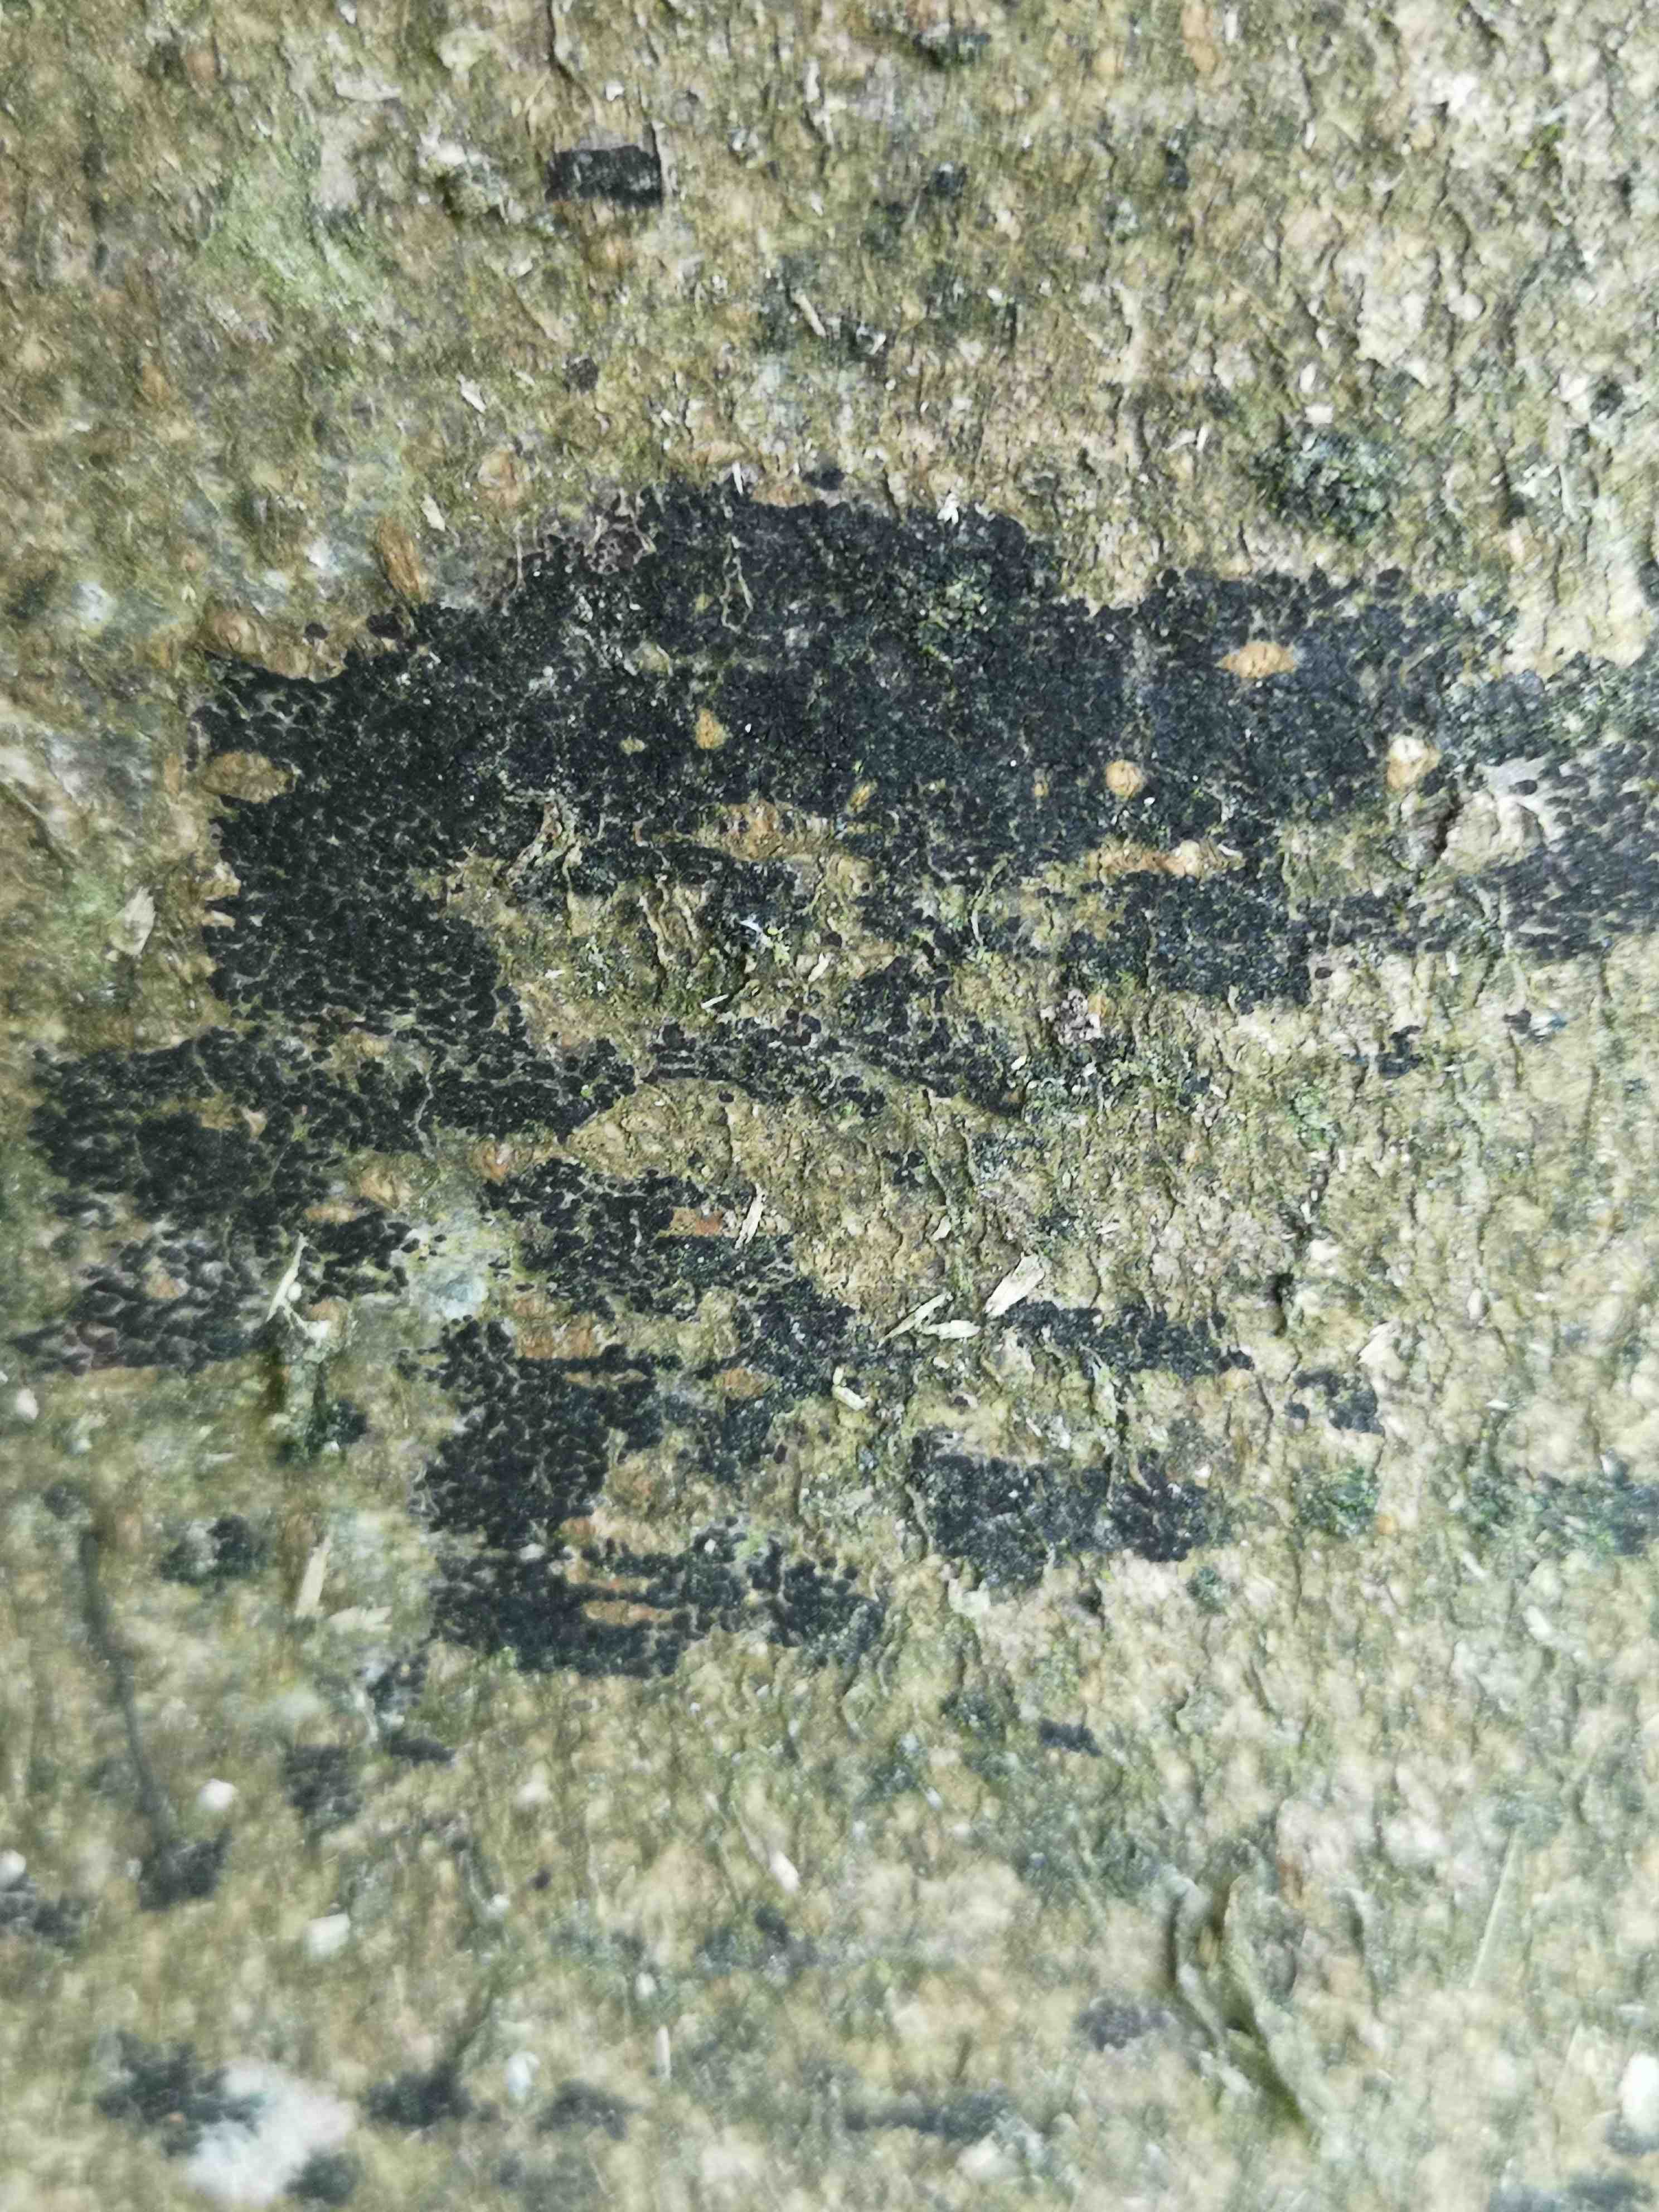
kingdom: Fungi
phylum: Ascomycota
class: Leotiomycetes
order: Rhytismatales
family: Ascodichaenaceae
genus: Ascodichaena
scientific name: Ascodichaena rugosa
